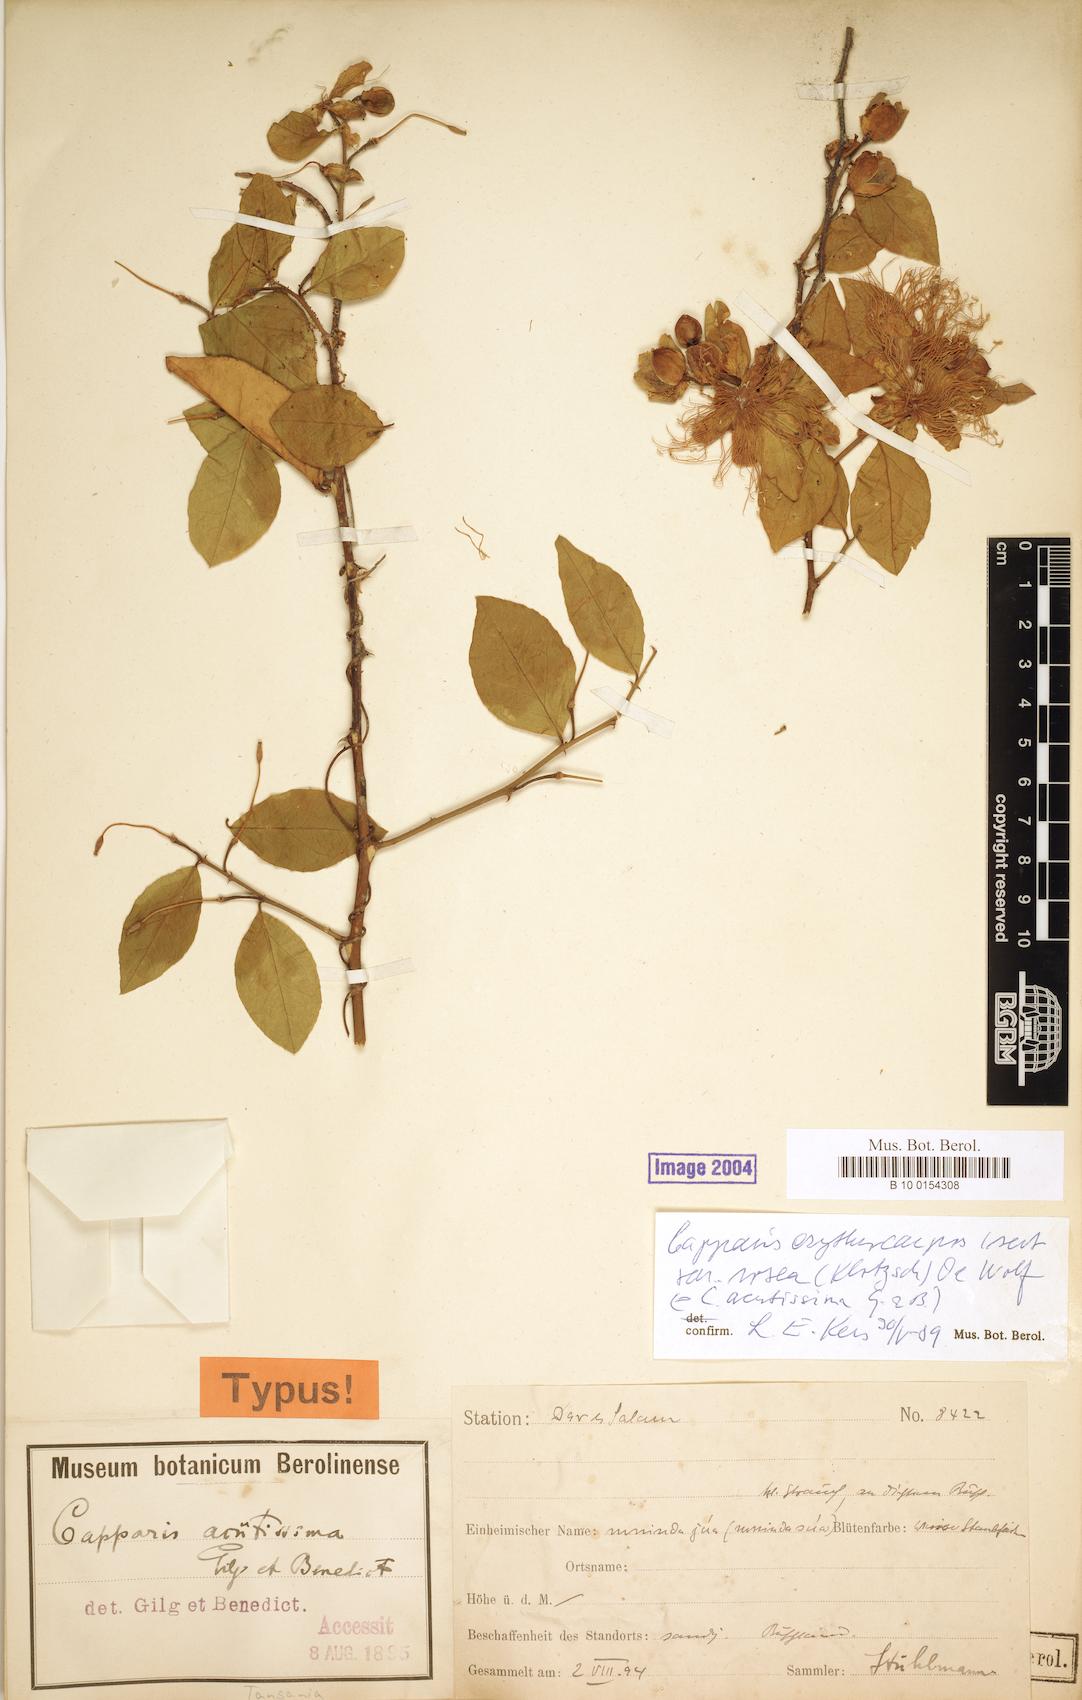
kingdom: Plantae
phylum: Tracheophyta
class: Magnoliopsida
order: Brassicales
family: Capparaceae
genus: Capparis
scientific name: Capparis erythrocarpos
